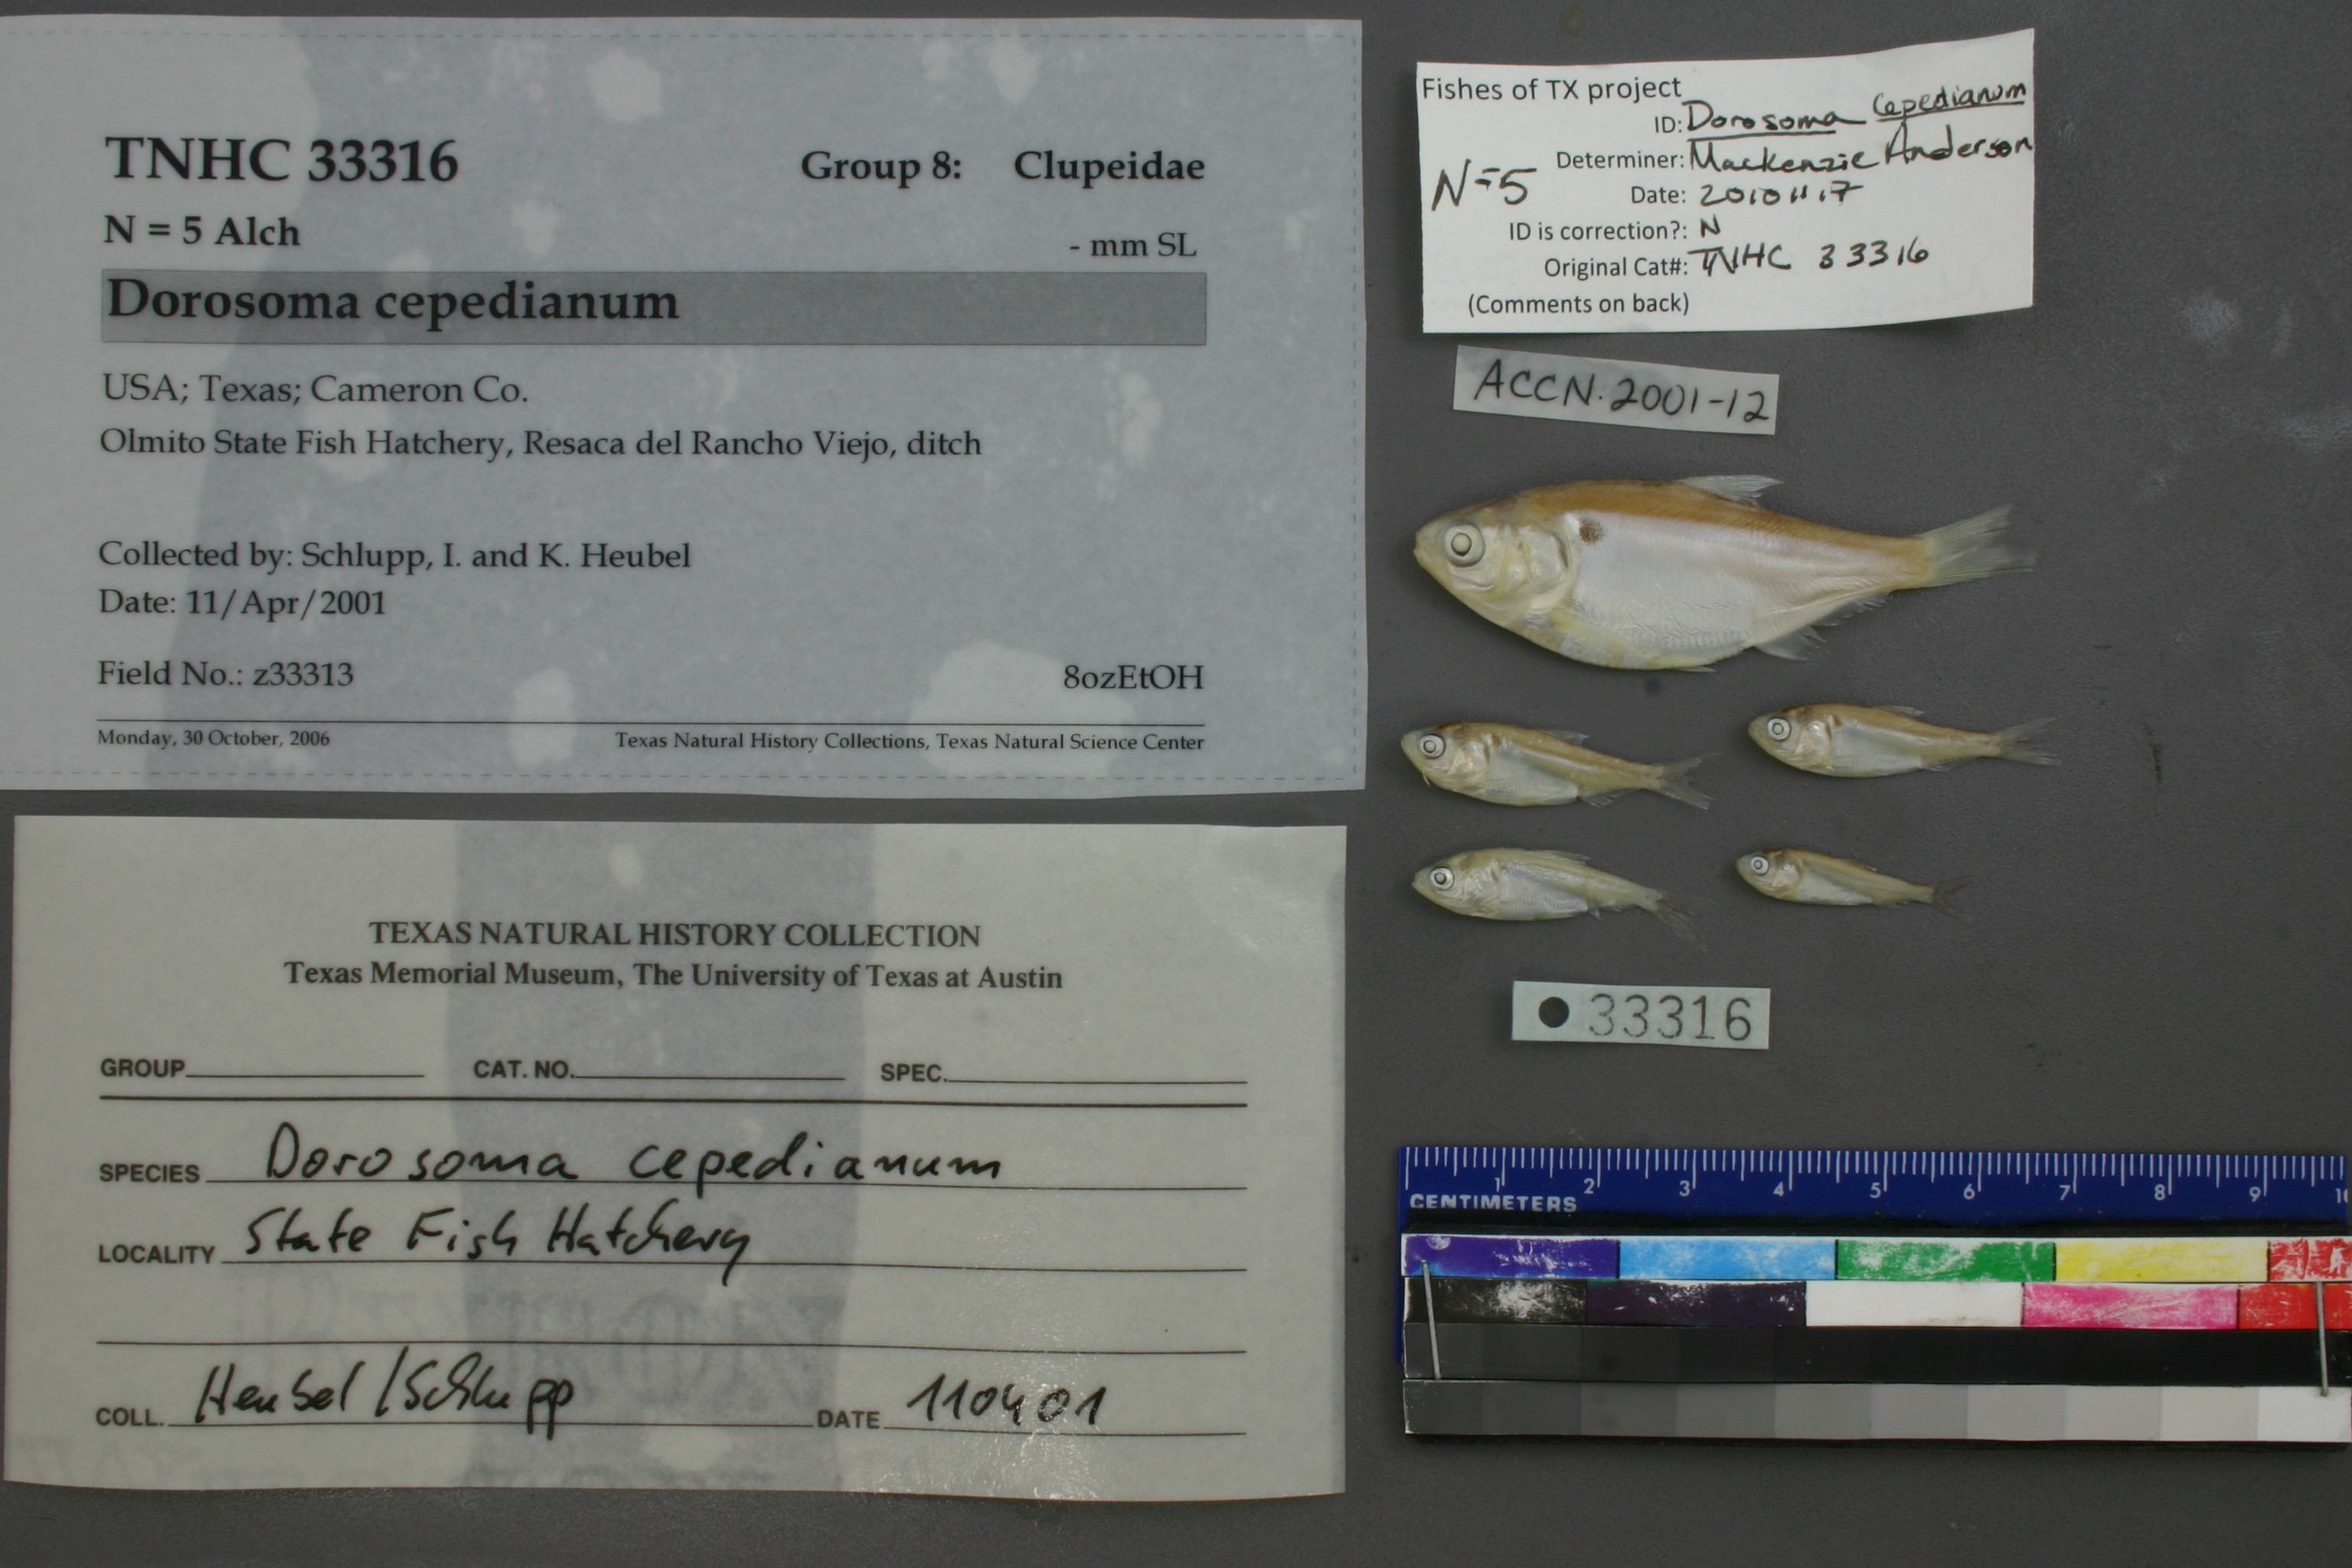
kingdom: Animalia
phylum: Chordata
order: Clupeiformes
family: Clupeidae
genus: Dorosoma
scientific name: Dorosoma cepedianum
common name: Gizzard shad
